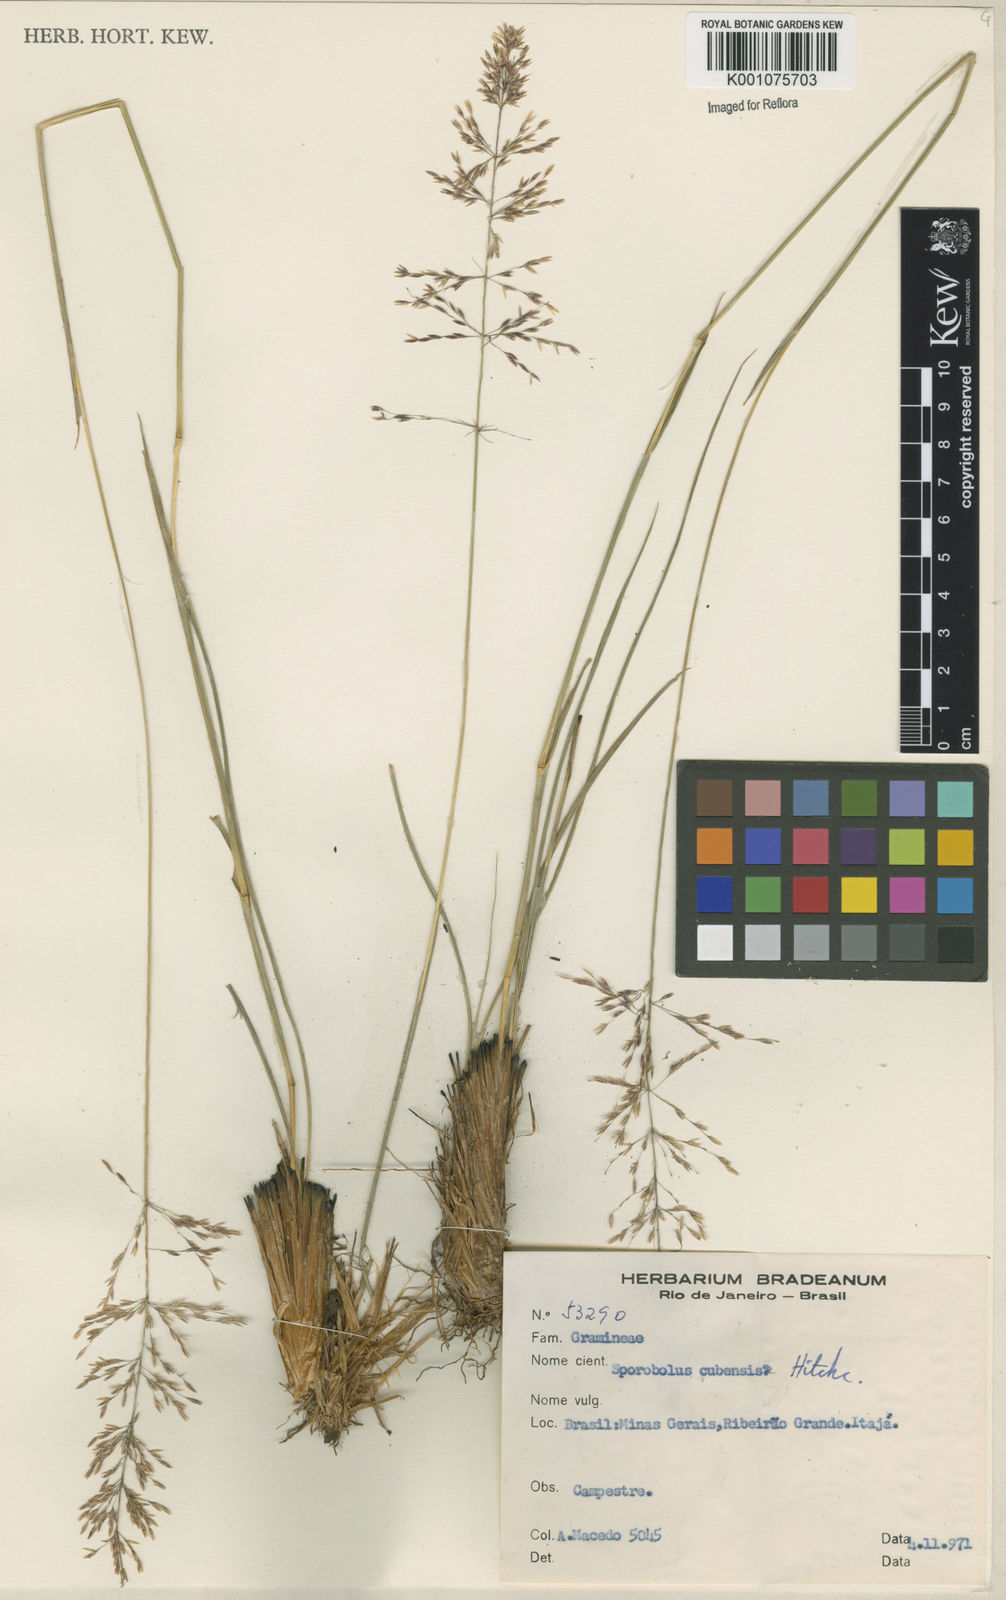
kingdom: Plantae
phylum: Tracheophyta
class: Liliopsida
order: Poales
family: Poaceae
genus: Sporobolus
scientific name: Sporobolus cubensis
